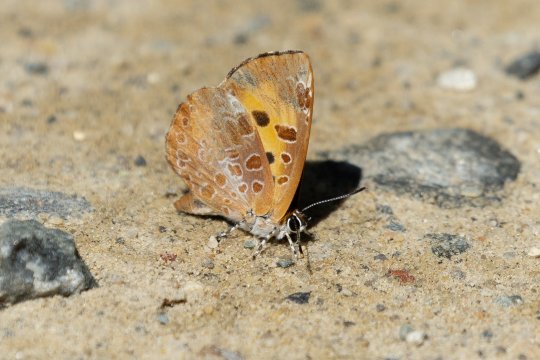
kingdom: Animalia
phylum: Arthropoda
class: Insecta
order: Lepidoptera
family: Lycaenidae
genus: Feniseca
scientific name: Feniseca tarquinius
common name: Harvester
